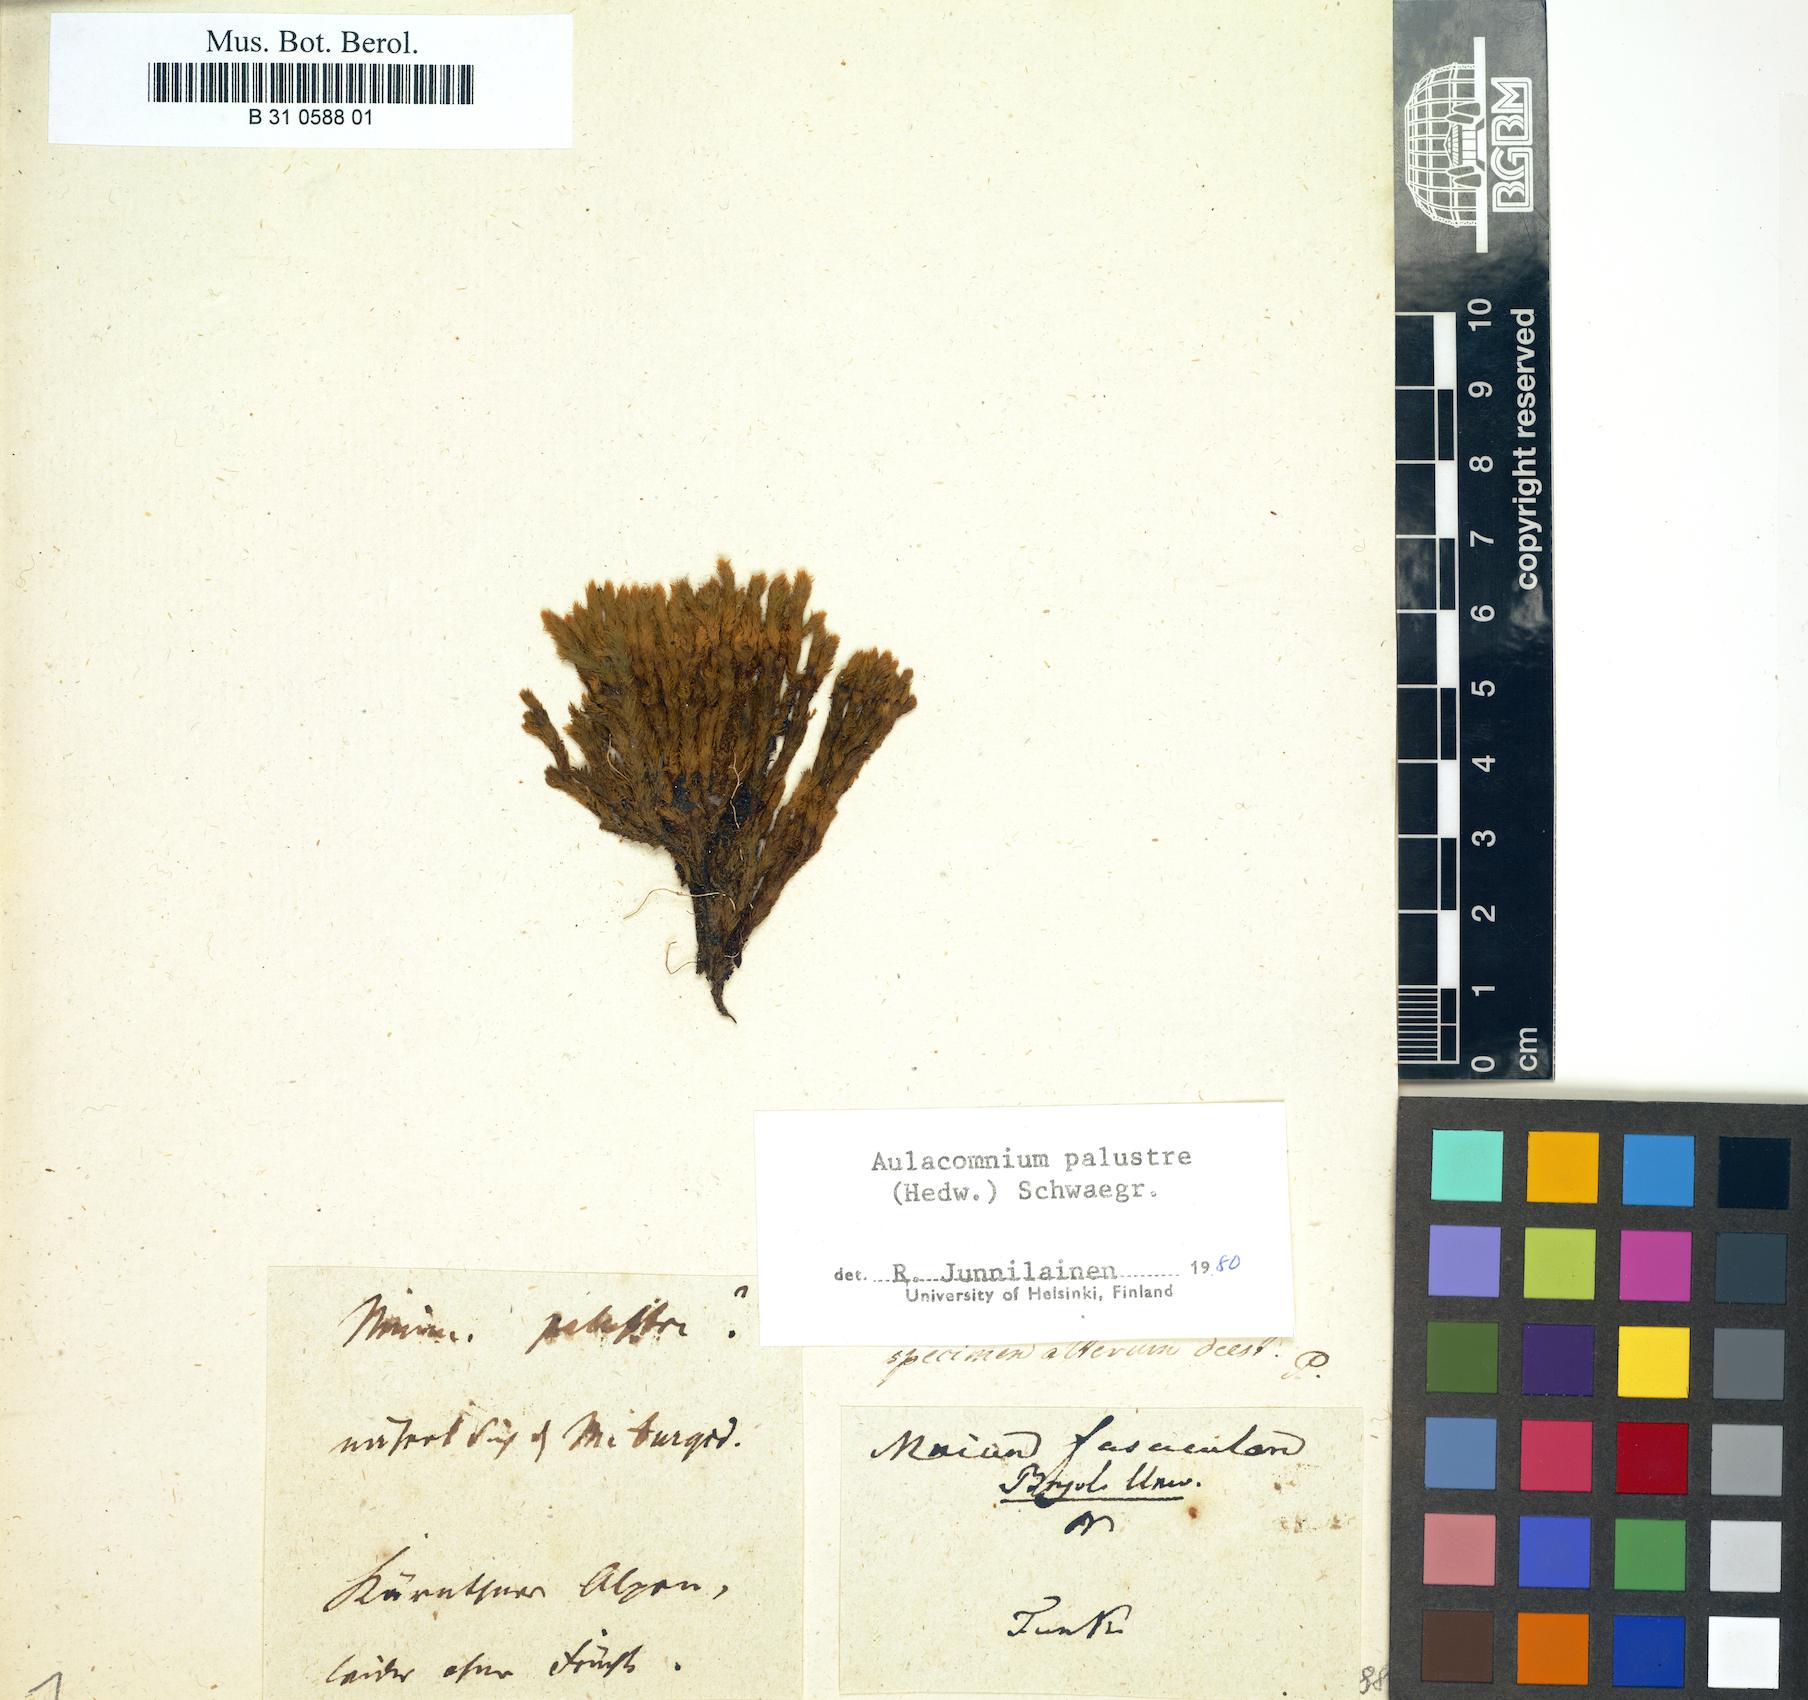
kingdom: Plantae
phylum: Bryophyta
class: Bryopsida
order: Aulacomniales
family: Aulacomniaceae
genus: Aulacomnium
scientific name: Aulacomnium palustre
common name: Bog groove-moss
